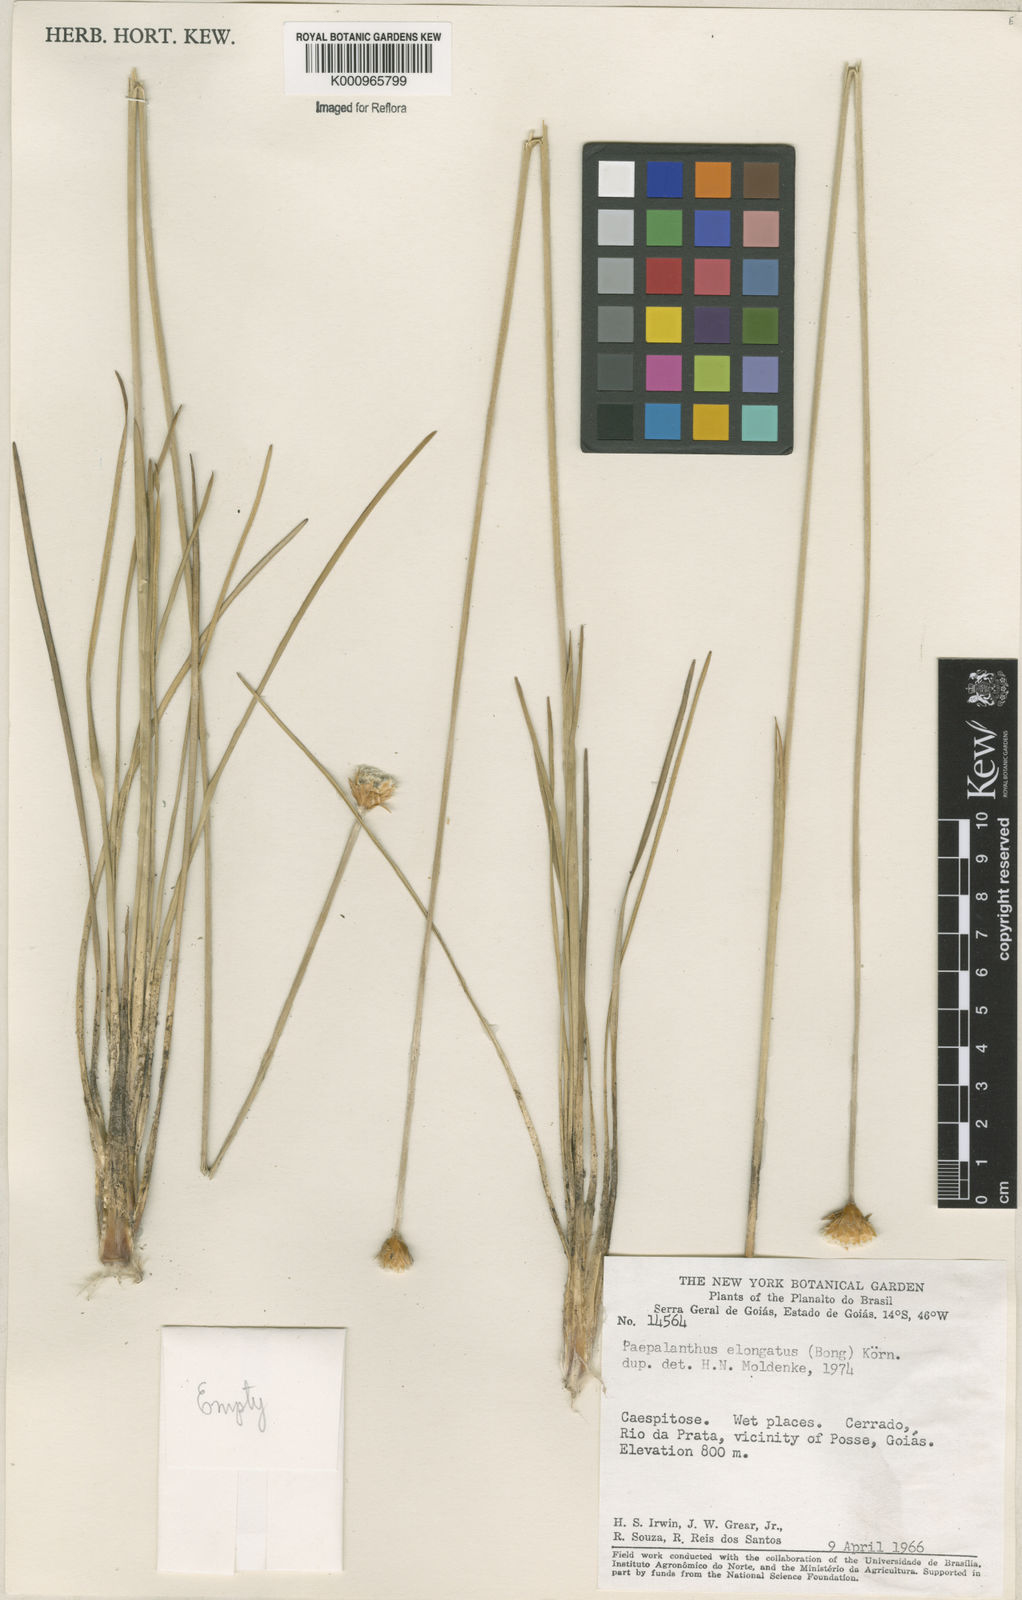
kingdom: Plantae
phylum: Tracheophyta
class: Liliopsida
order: Poales
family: Eriocaulaceae
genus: Paepalanthus
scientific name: Paepalanthus
